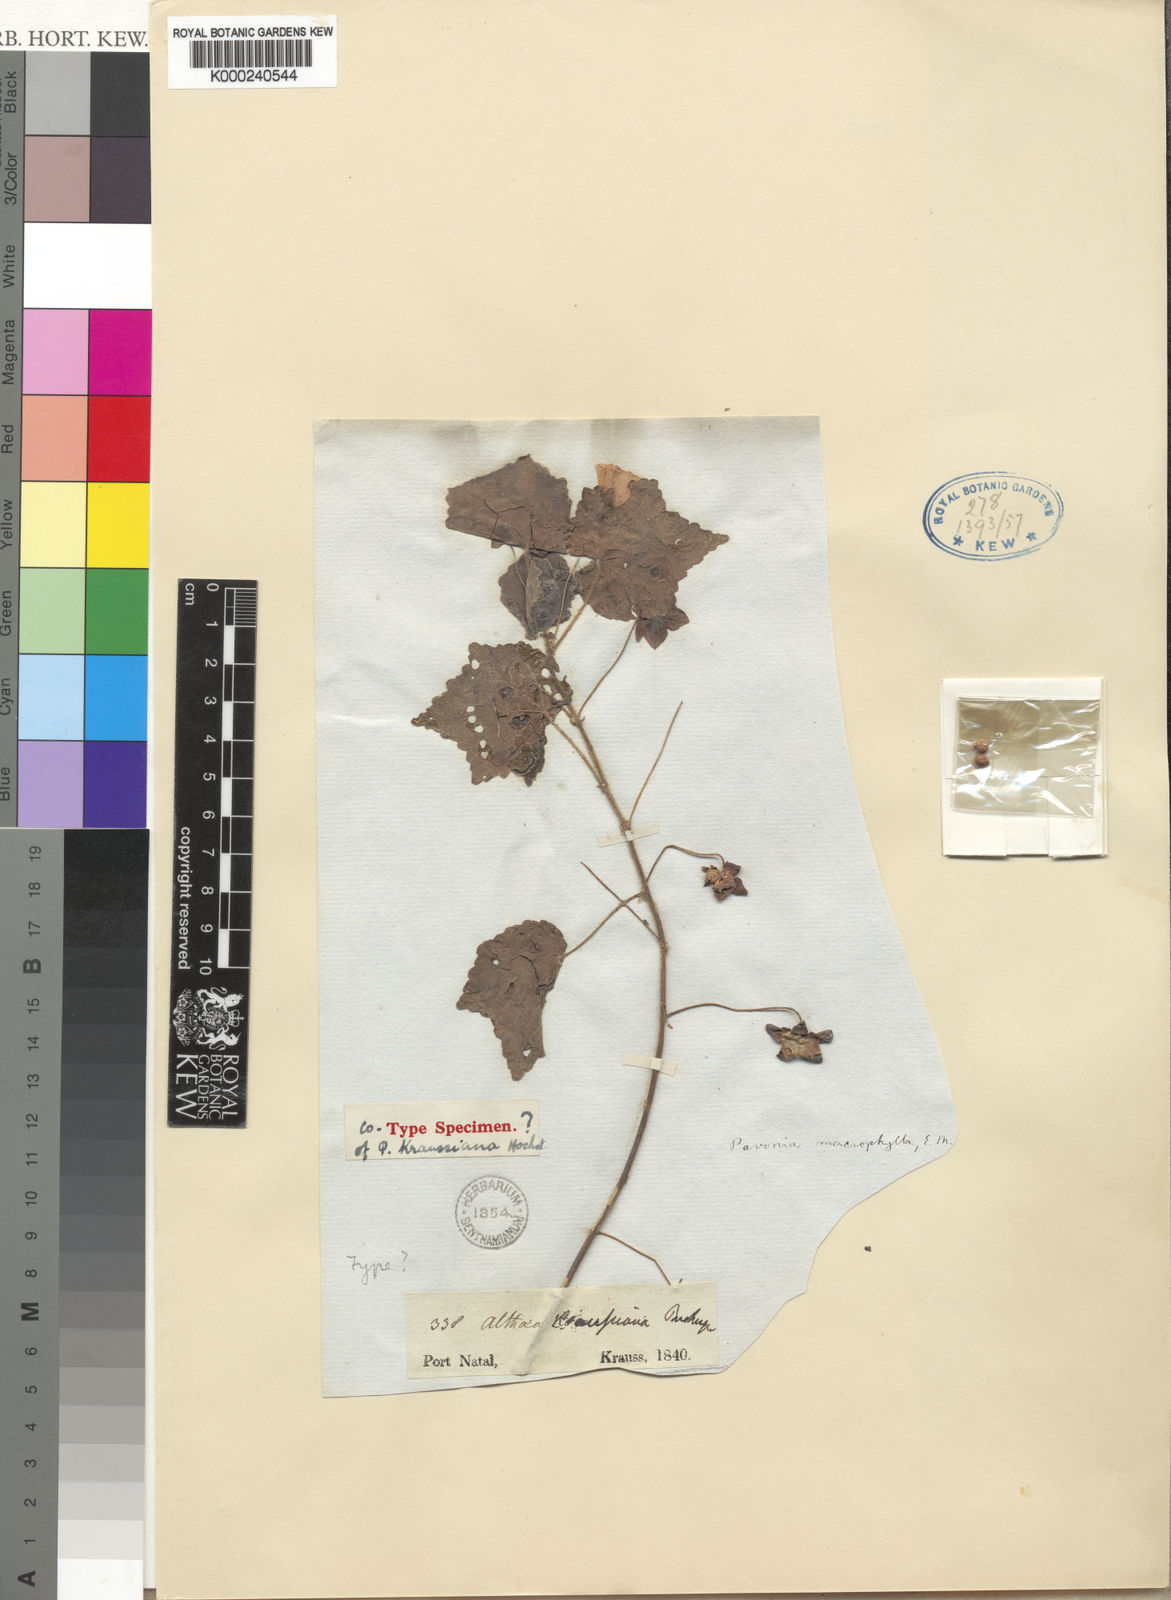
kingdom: Plantae
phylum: Tracheophyta
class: Magnoliopsida
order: Malvales
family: Malvaceae
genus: Pavonia
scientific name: Pavonia burchellii
